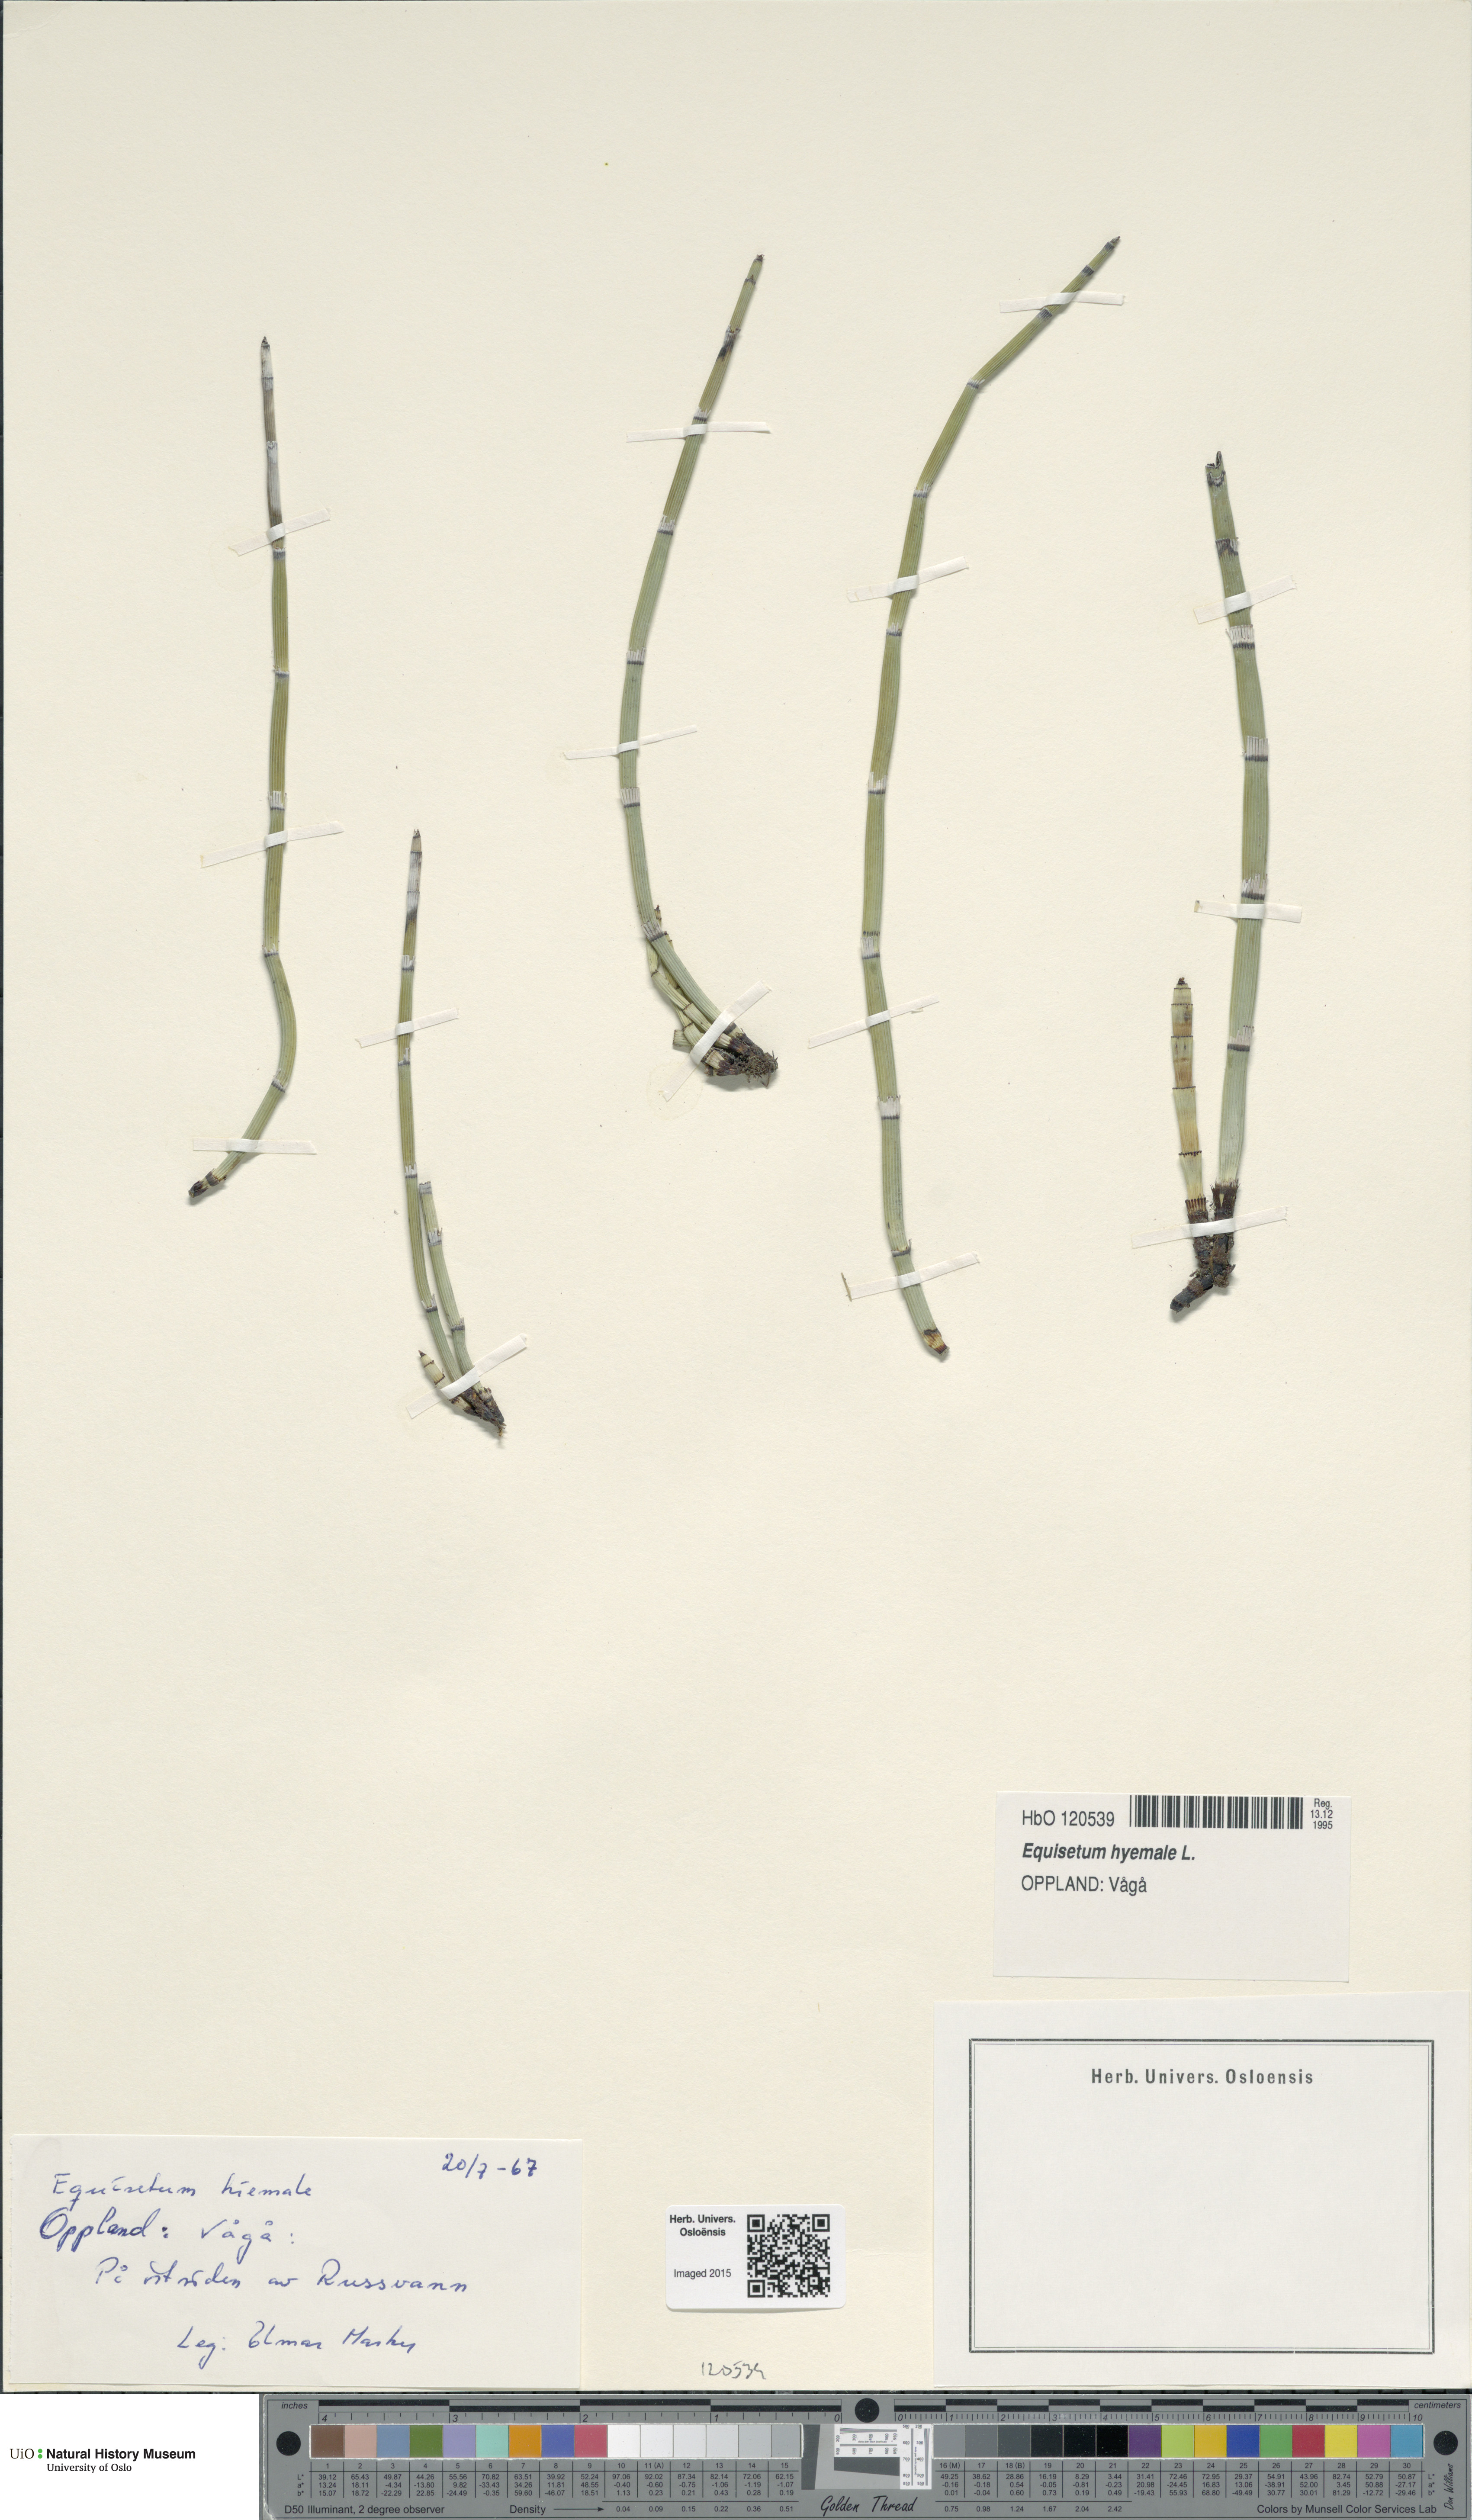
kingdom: Plantae
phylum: Tracheophyta
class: Polypodiopsida
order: Equisetales
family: Equisetaceae
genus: Equisetum
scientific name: Equisetum hyemale
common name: Rough horsetail
